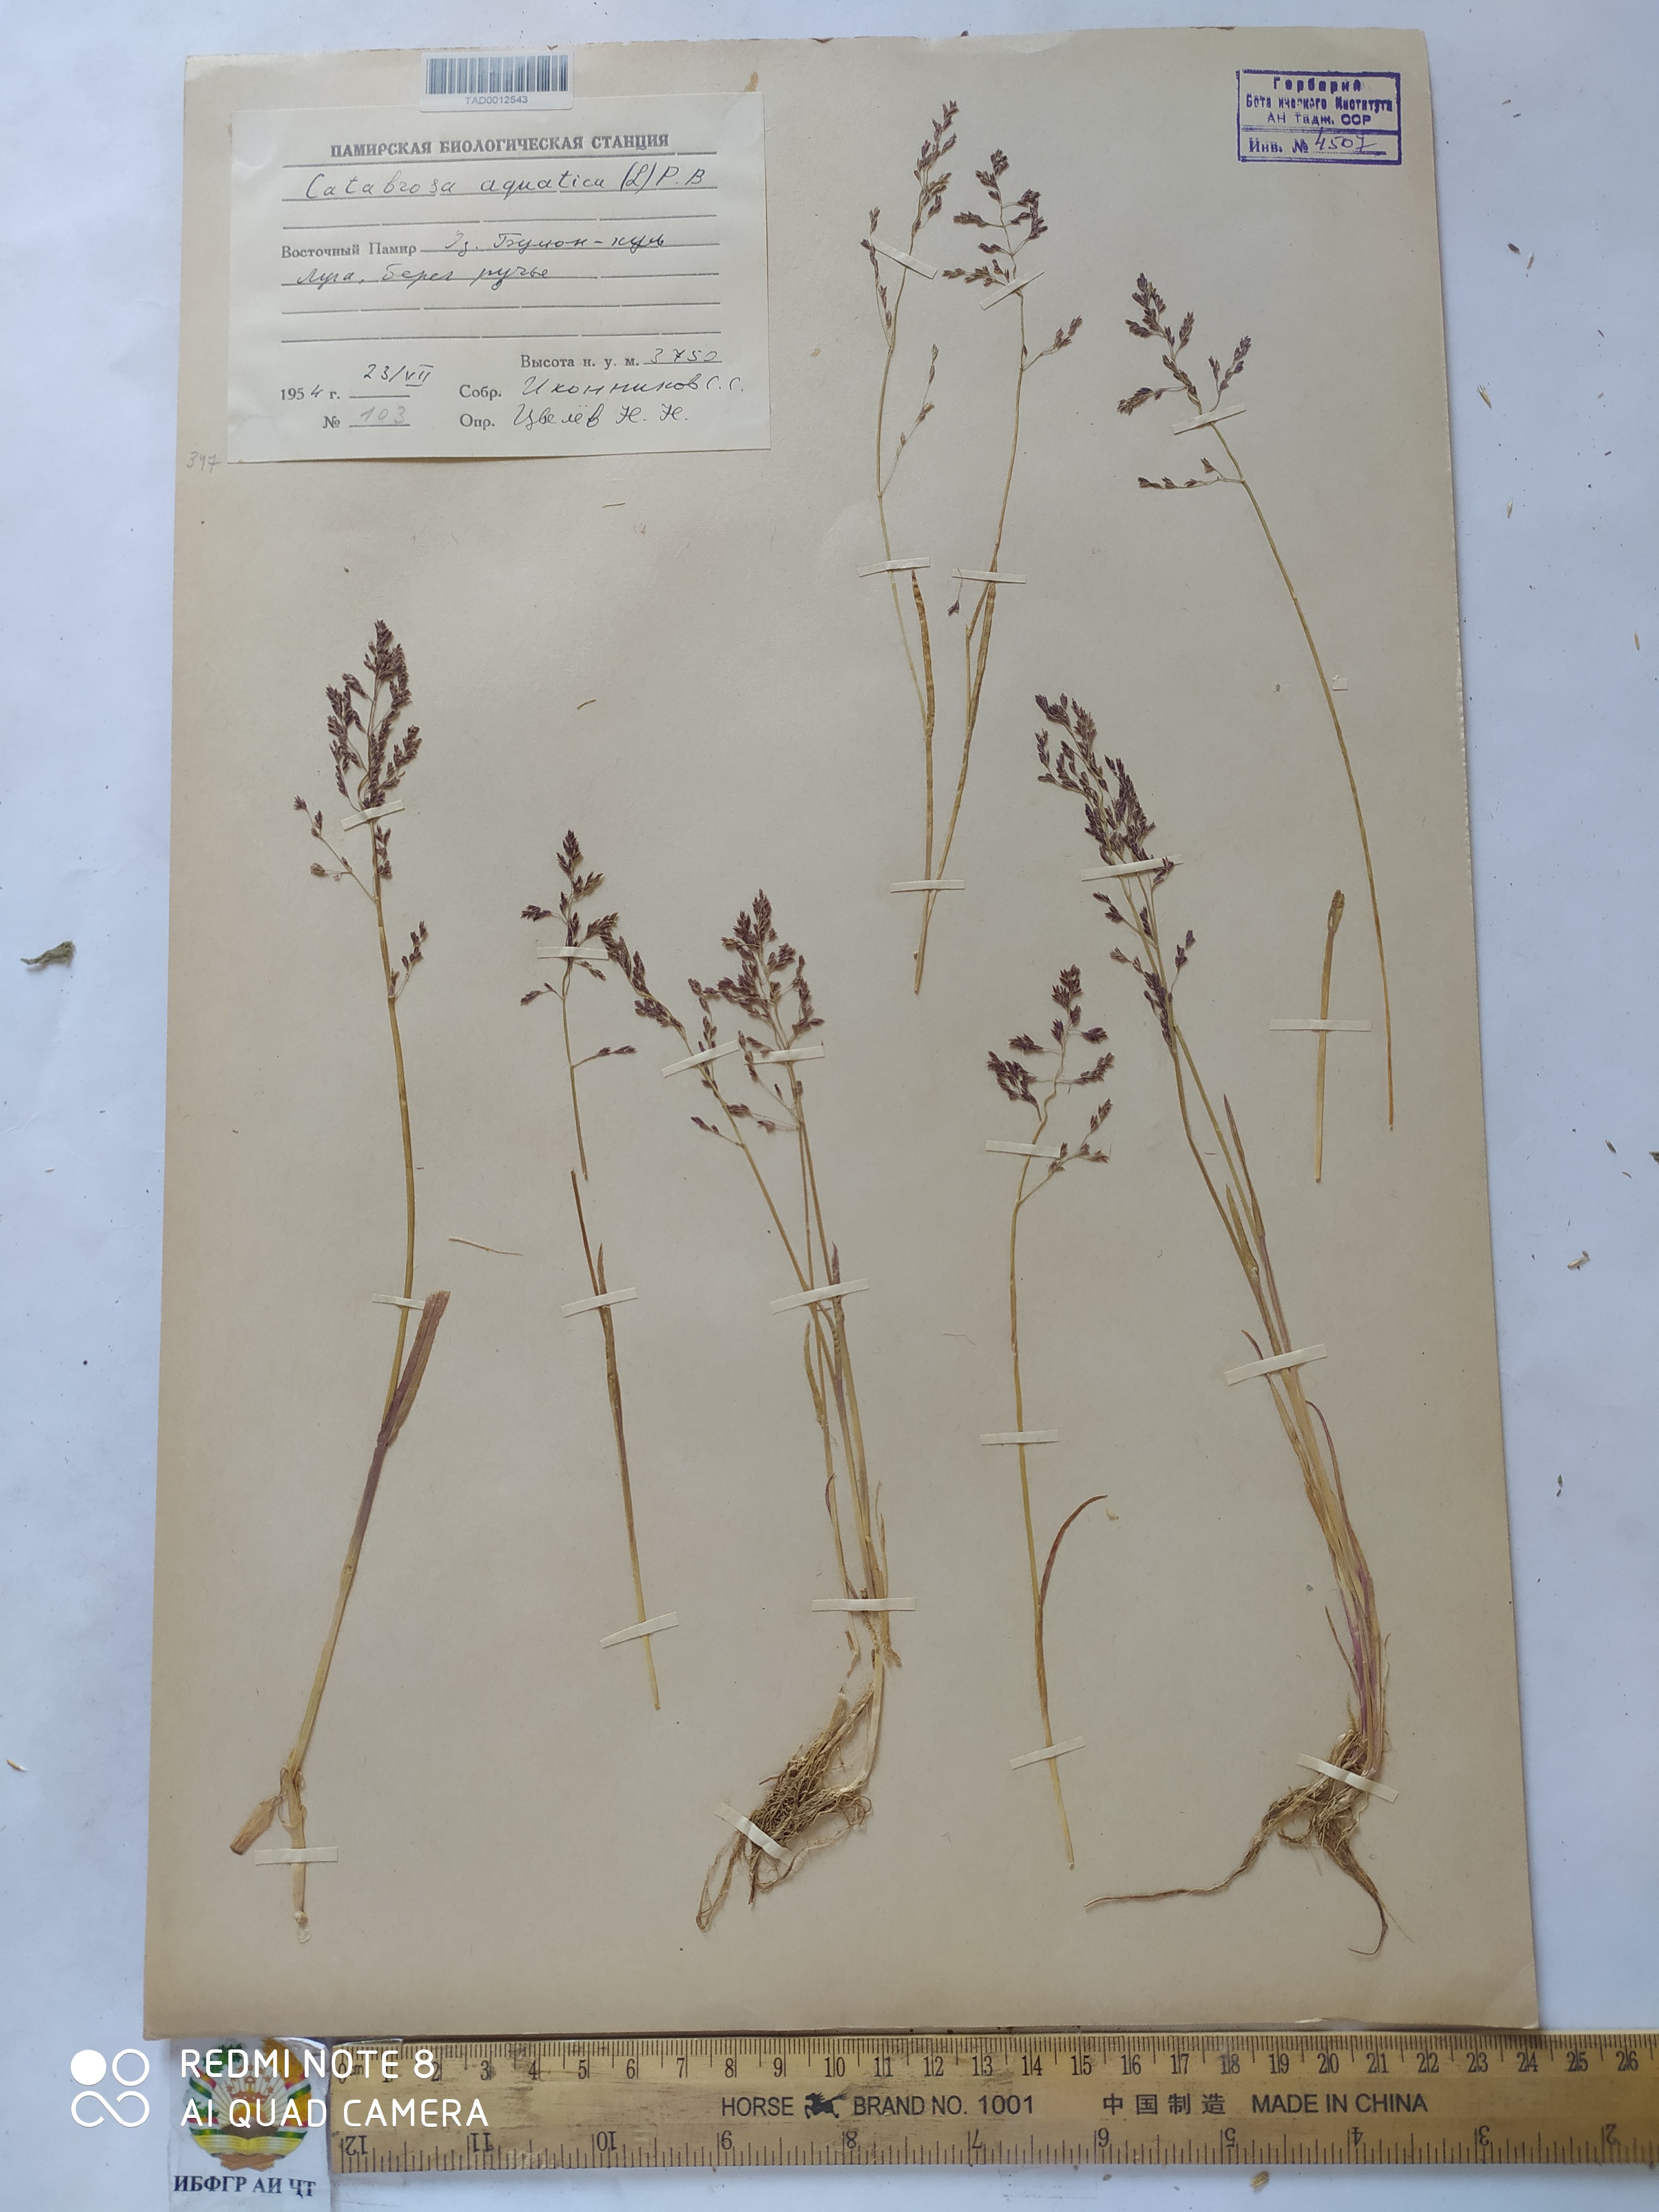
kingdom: Plantae
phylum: Tracheophyta
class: Liliopsida
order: Poales
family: Poaceae
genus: Catabrosa
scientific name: Catabrosa aquatica
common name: Whorl-grass
